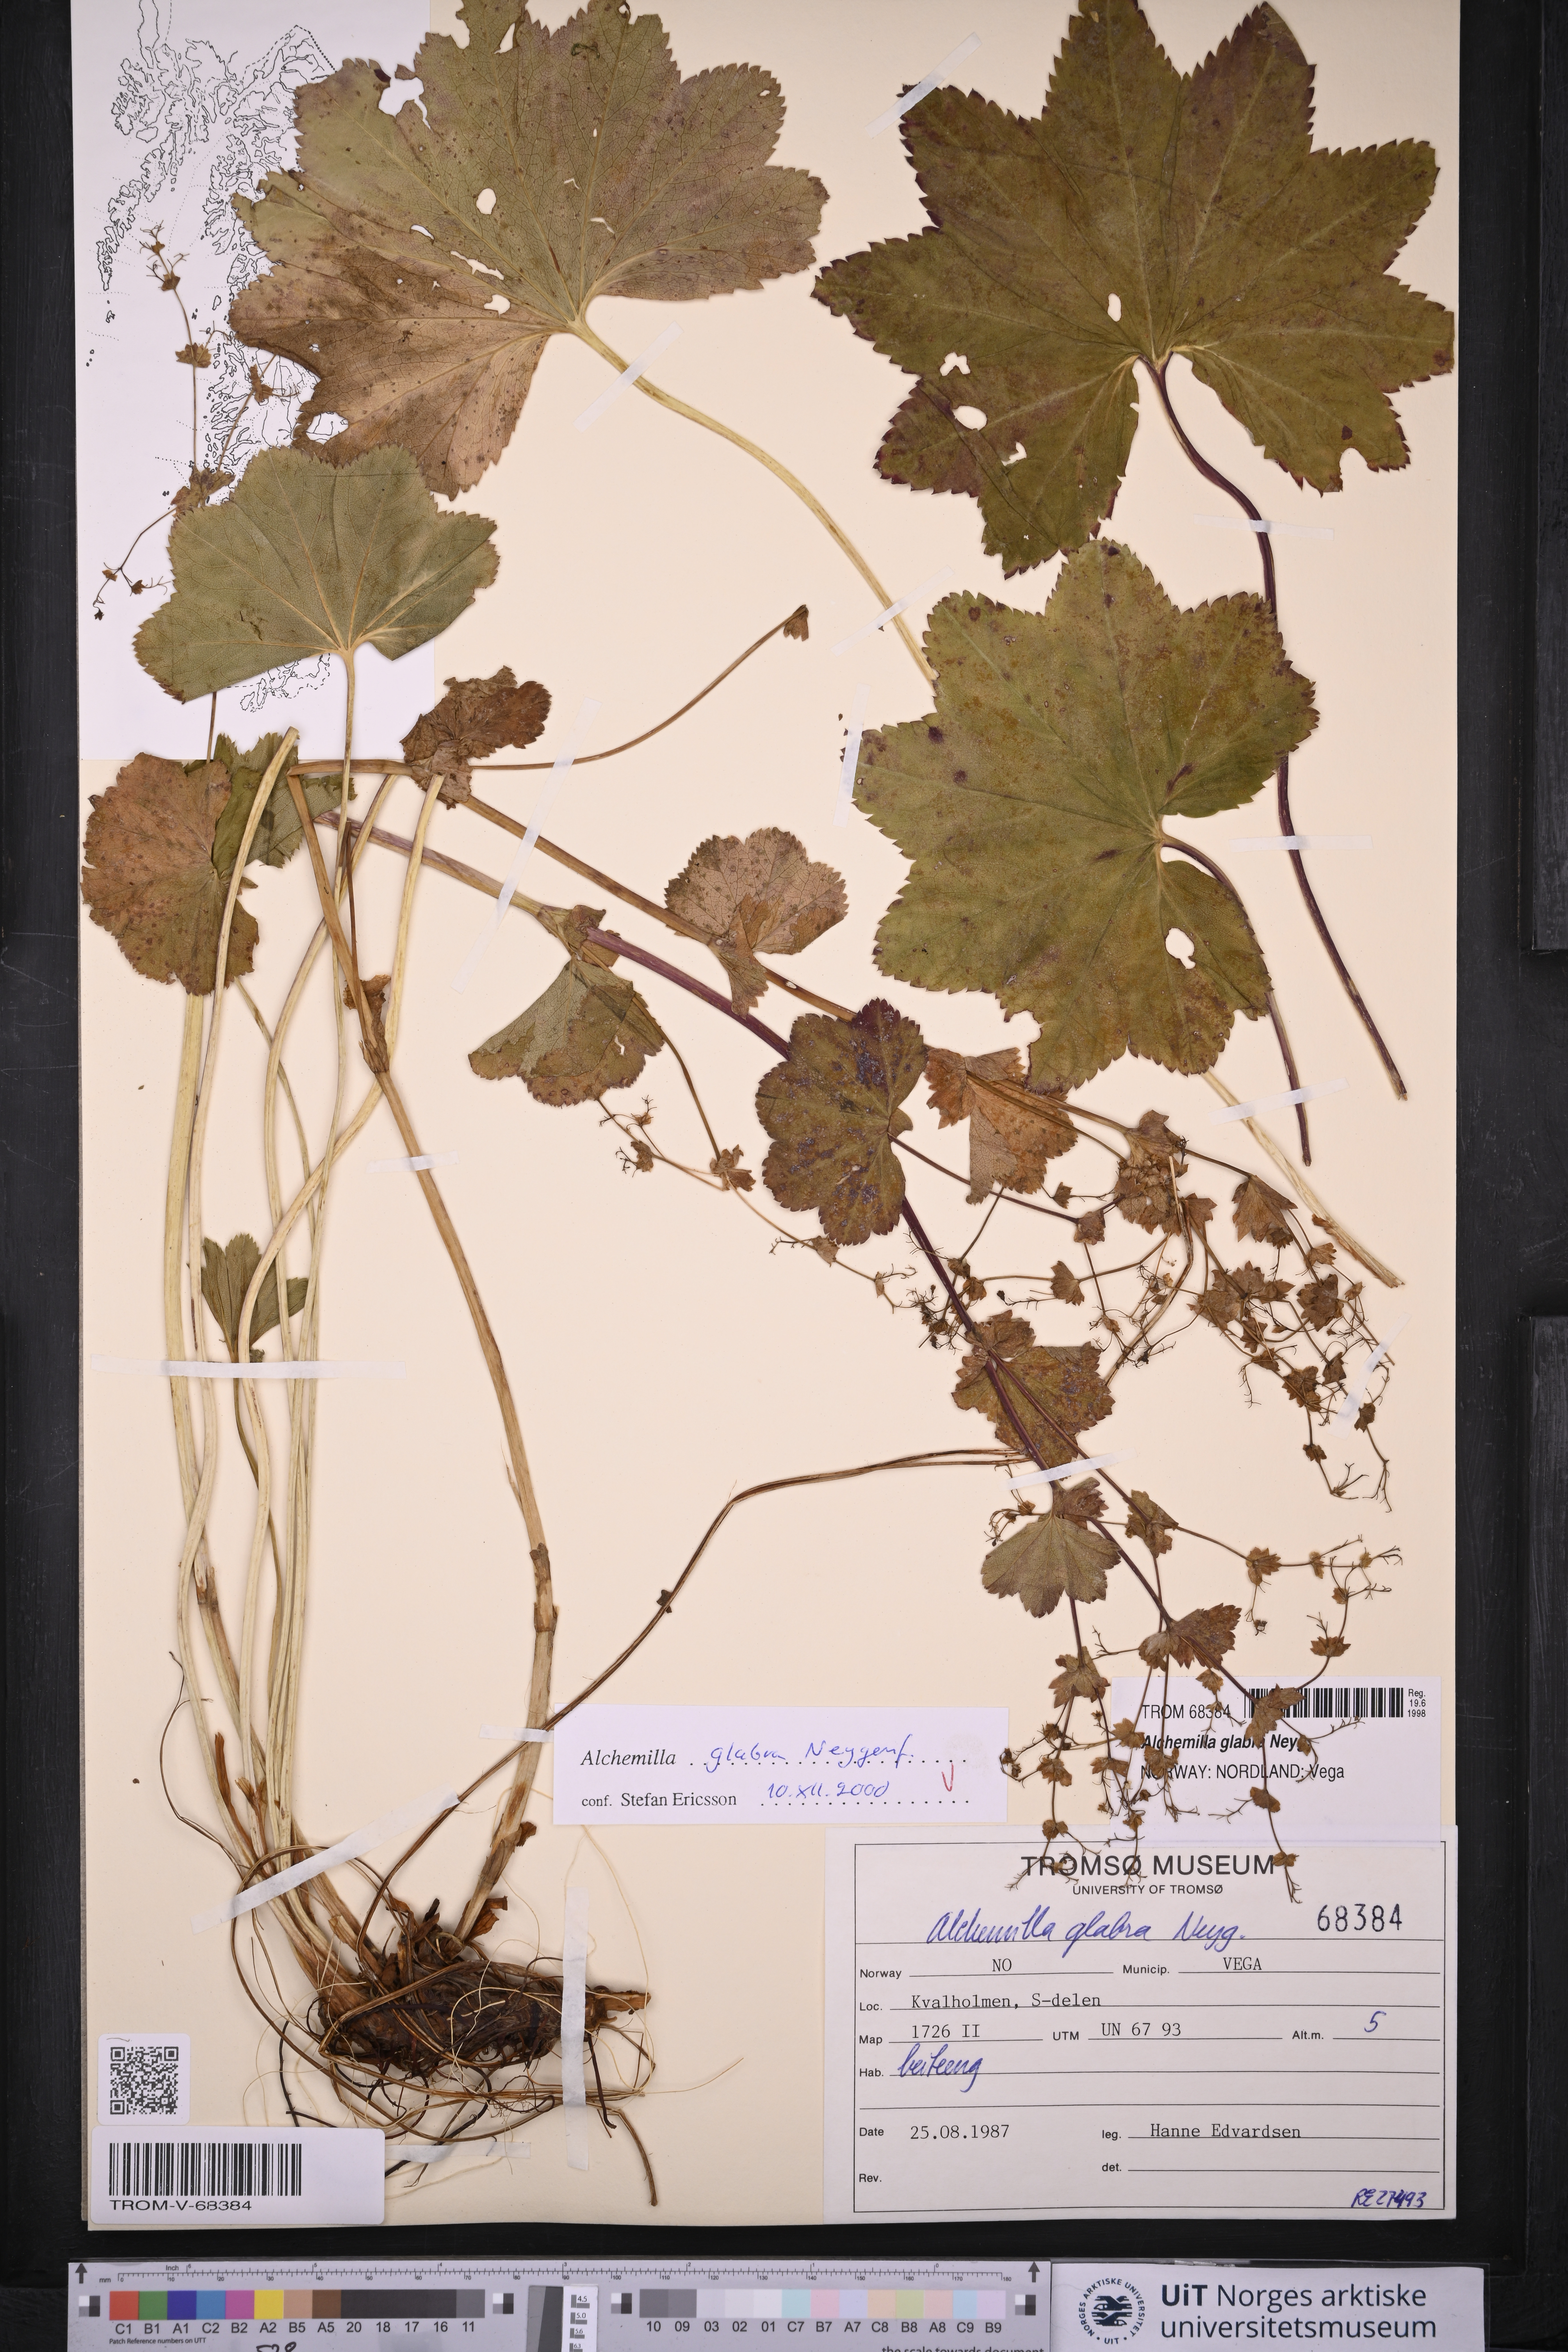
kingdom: Plantae
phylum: Tracheophyta
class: Magnoliopsida
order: Rosales
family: Rosaceae
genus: Alchemilla
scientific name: Alchemilla glabra
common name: Smooth lady's-mantle
